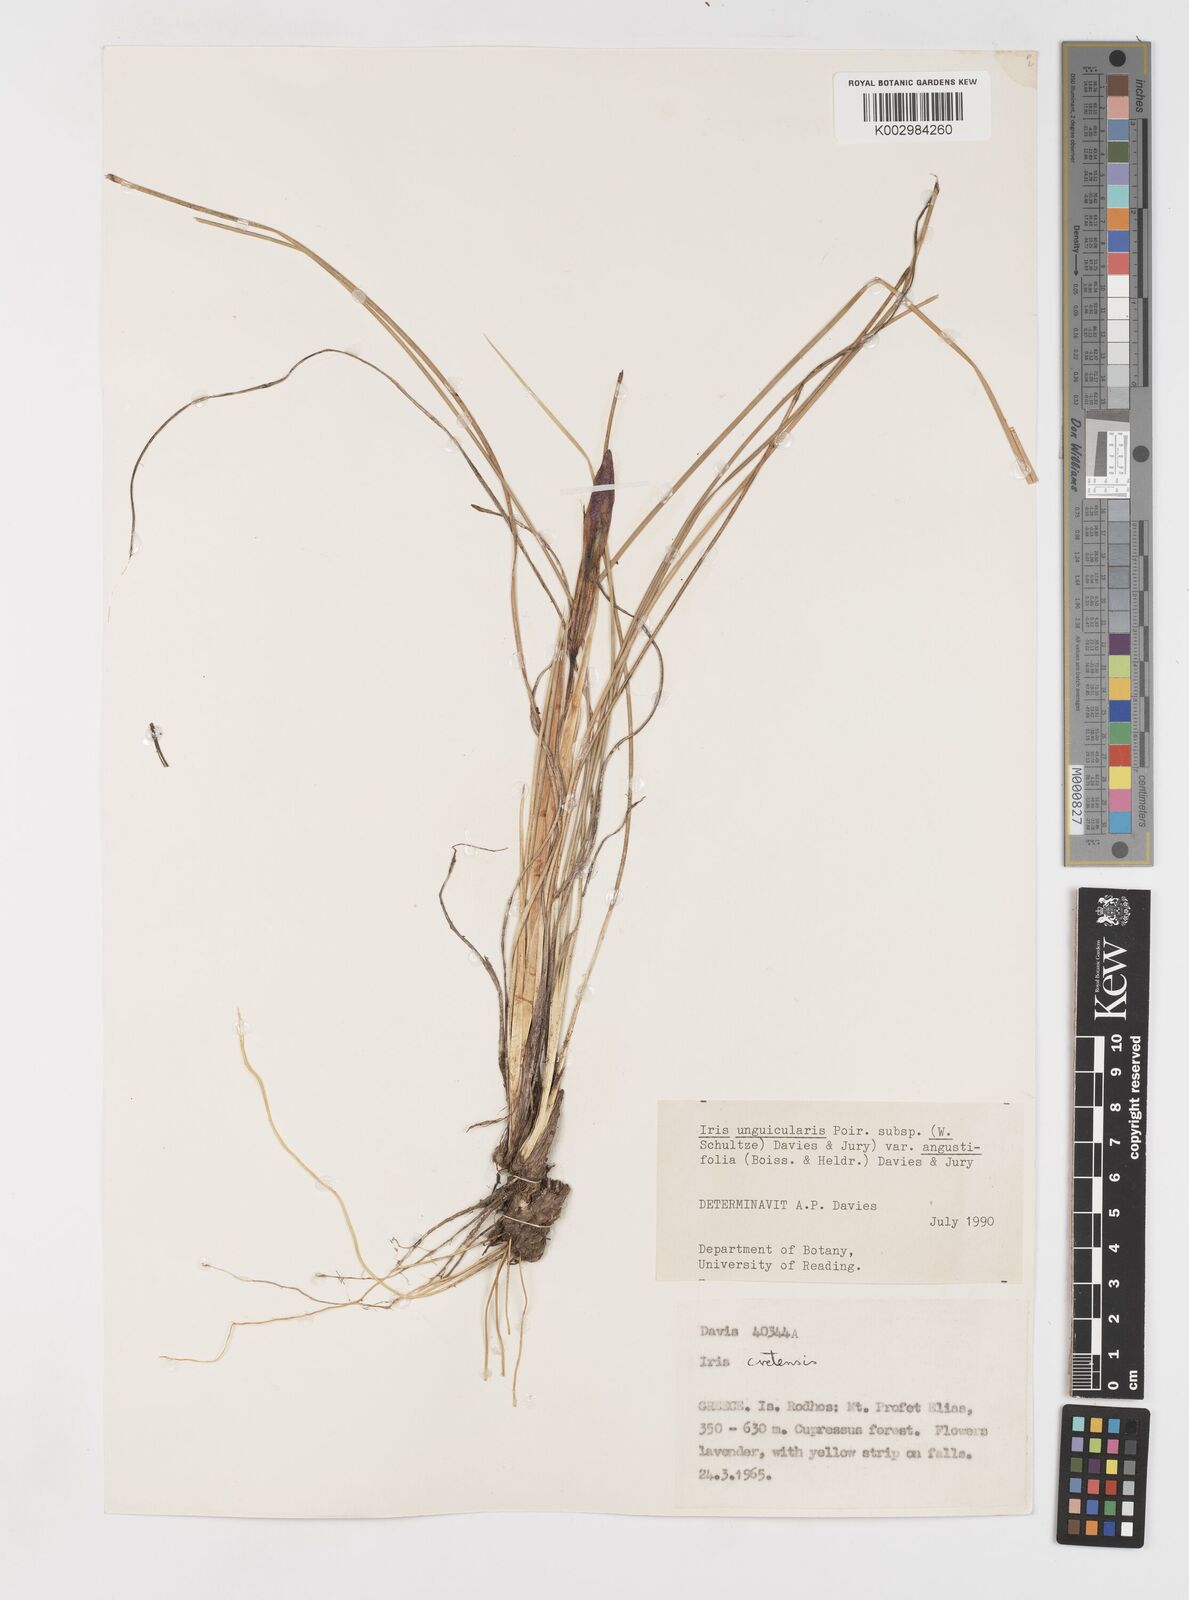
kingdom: Plantae
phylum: Tracheophyta
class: Liliopsida
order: Asparagales
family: Iridaceae
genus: Iris
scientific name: Iris unguicularis
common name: Algerian iris
